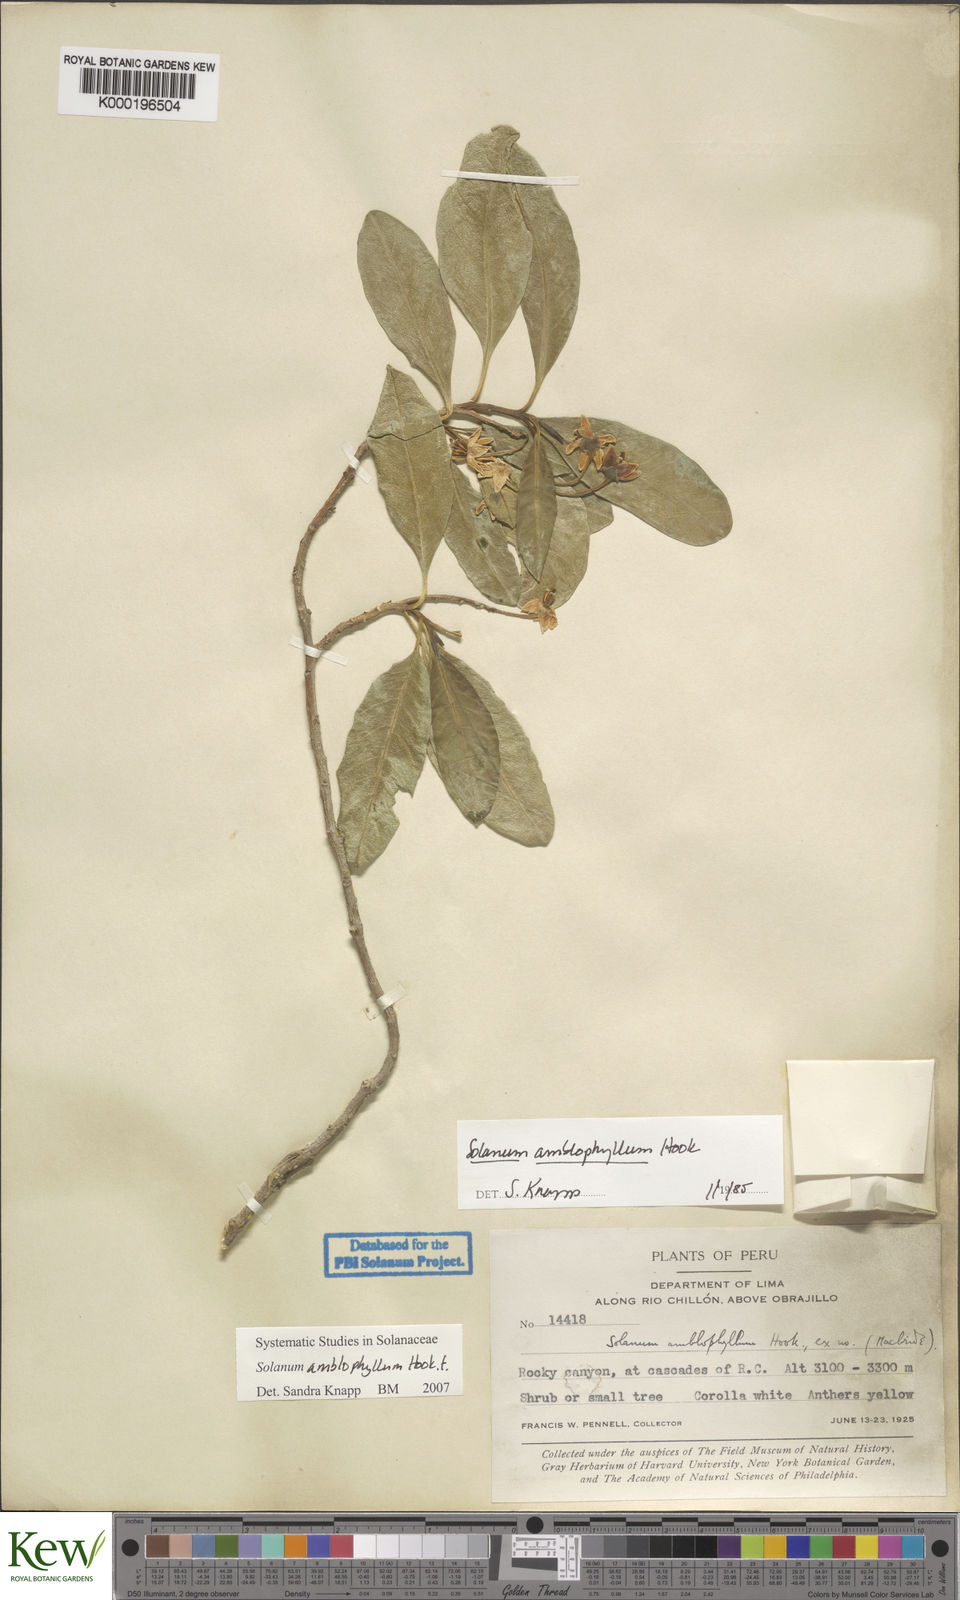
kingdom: Plantae
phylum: Tracheophyta
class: Magnoliopsida
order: Solanales
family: Solanaceae
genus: Solanum
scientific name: Solanum amblophyllum
